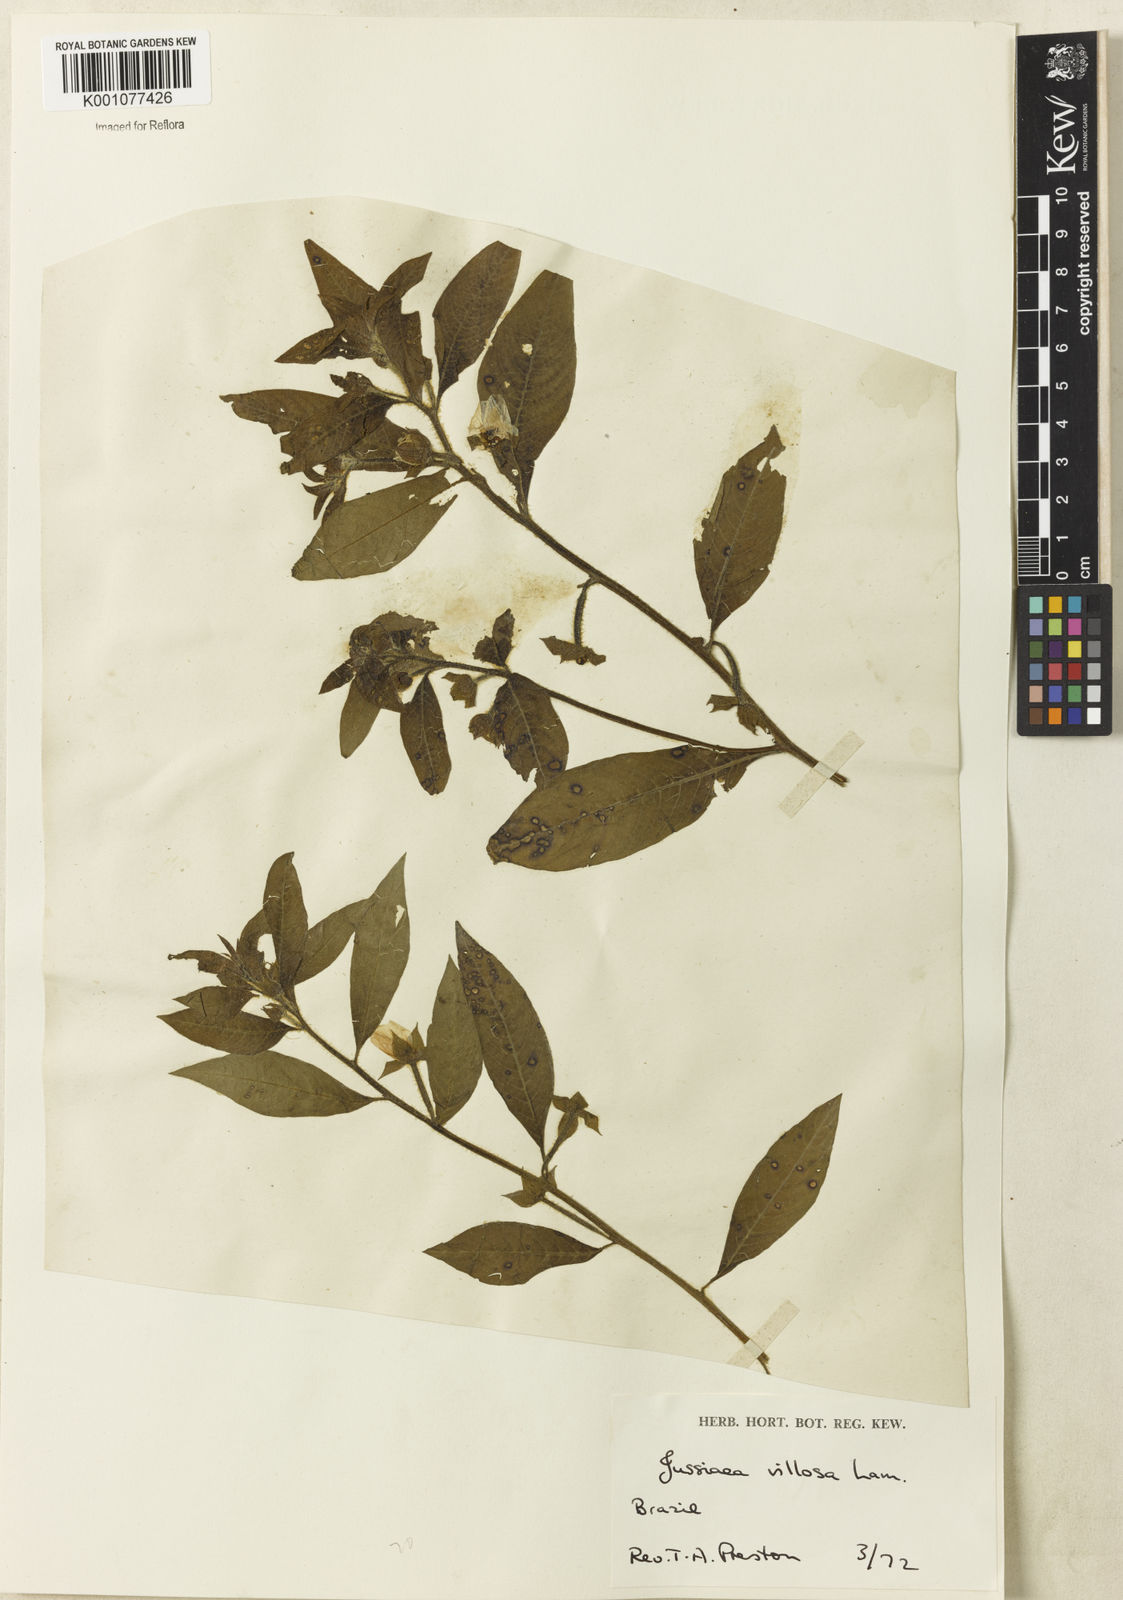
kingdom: Plantae
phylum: Tracheophyta
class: Magnoliopsida
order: Myrtales
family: Onagraceae
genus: Ludwigia
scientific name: Ludwigia octovalvis
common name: Water-primrose
